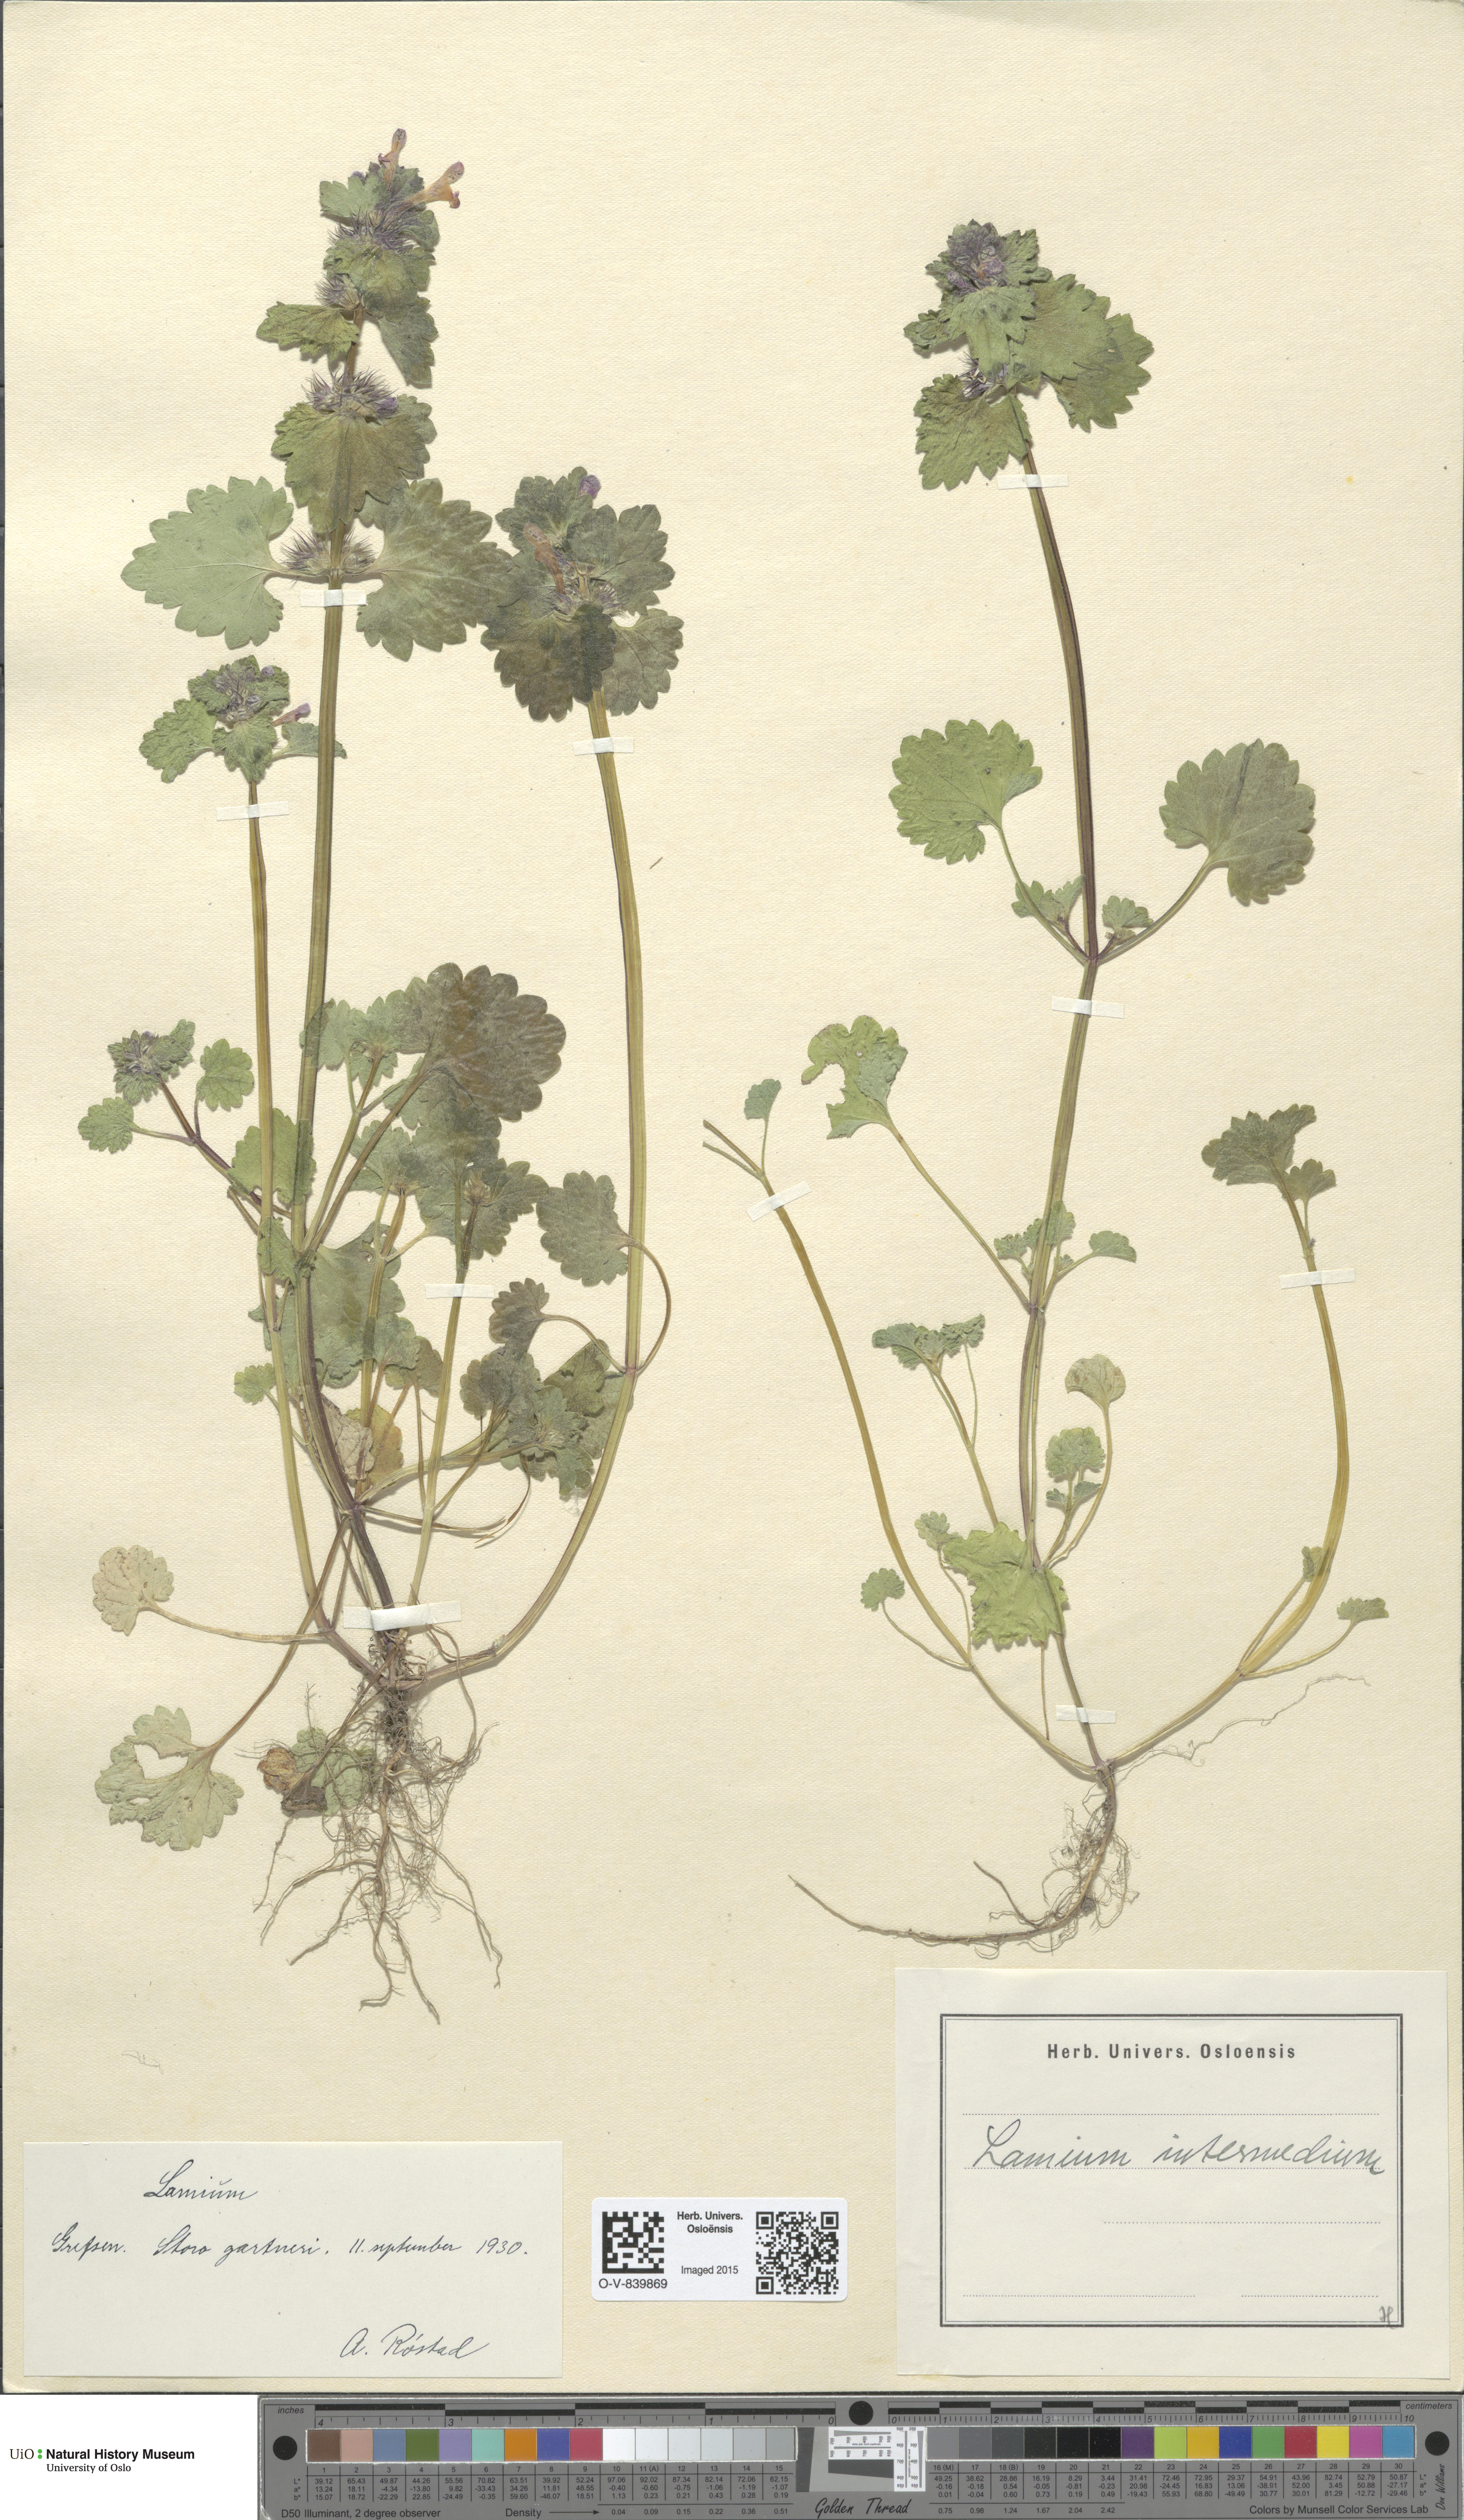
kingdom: Plantae
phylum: Tracheophyta
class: Magnoliopsida
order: Lamiales
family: Lamiaceae
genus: Lamium
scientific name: Lamium confertum
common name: Northern dead-nettle
